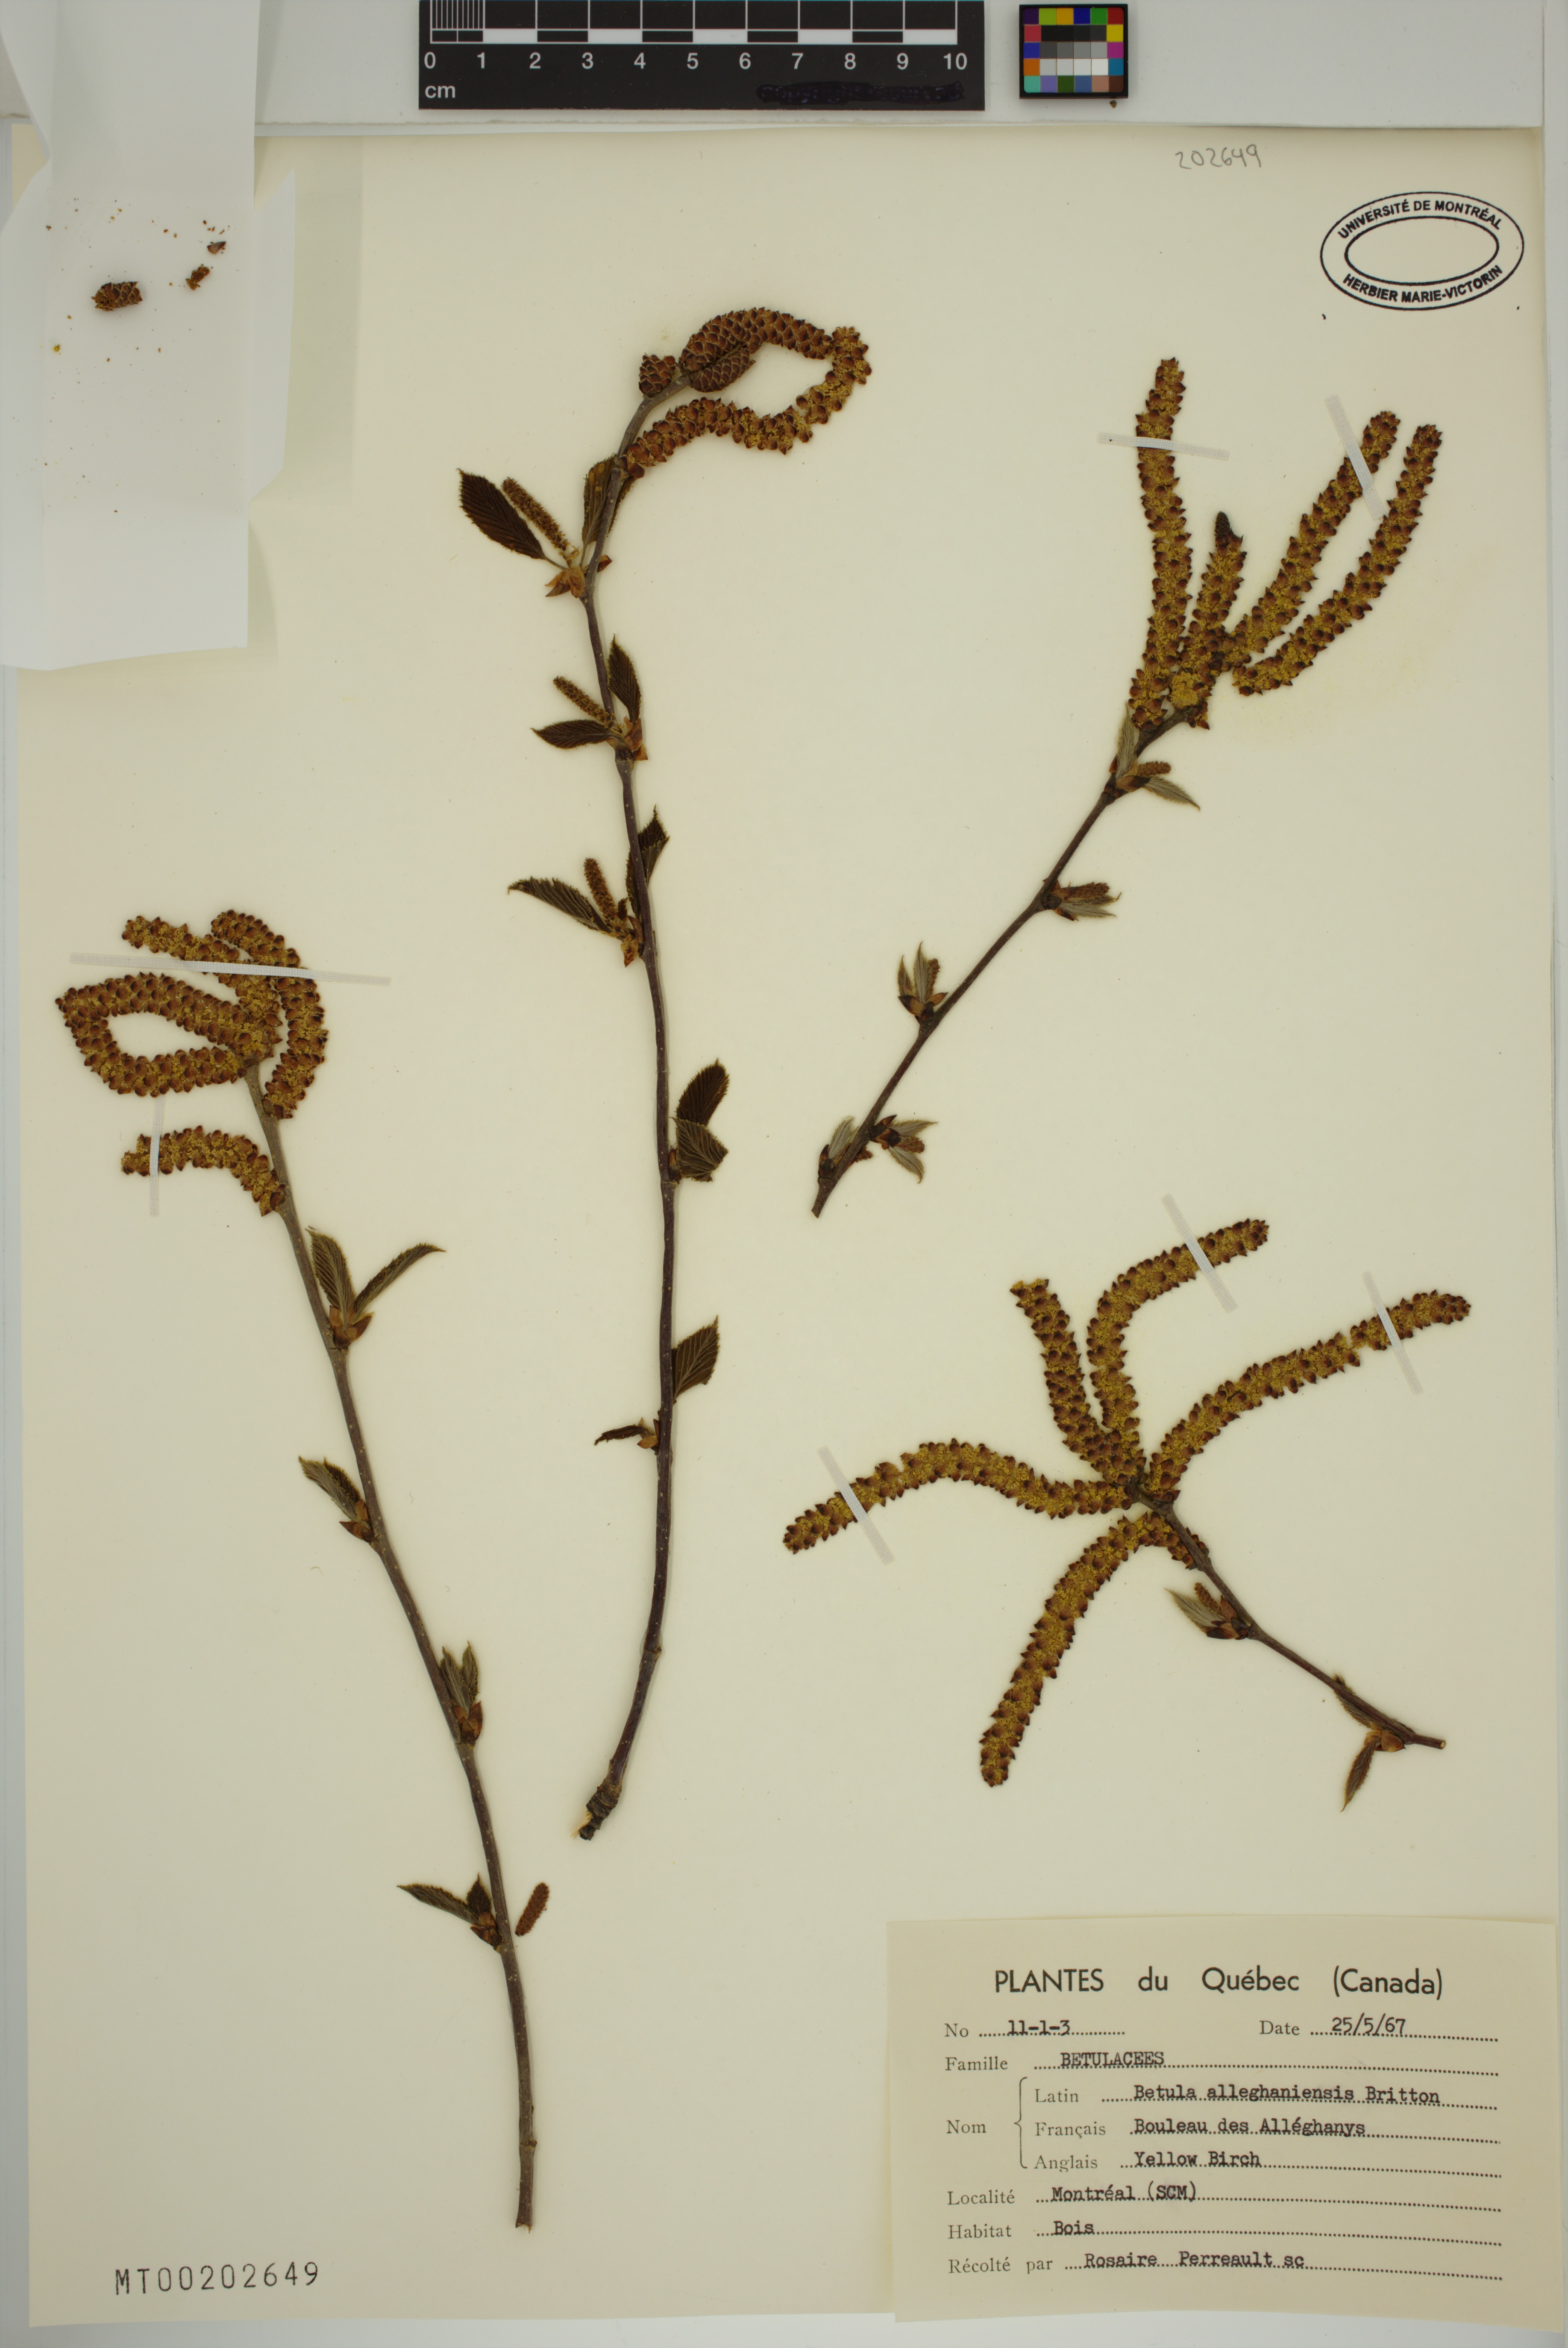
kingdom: Plantae
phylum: Tracheophyta
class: Magnoliopsida
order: Fagales
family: Betulaceae
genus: Betula
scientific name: Betula alleghaniensis
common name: Yellow birch
